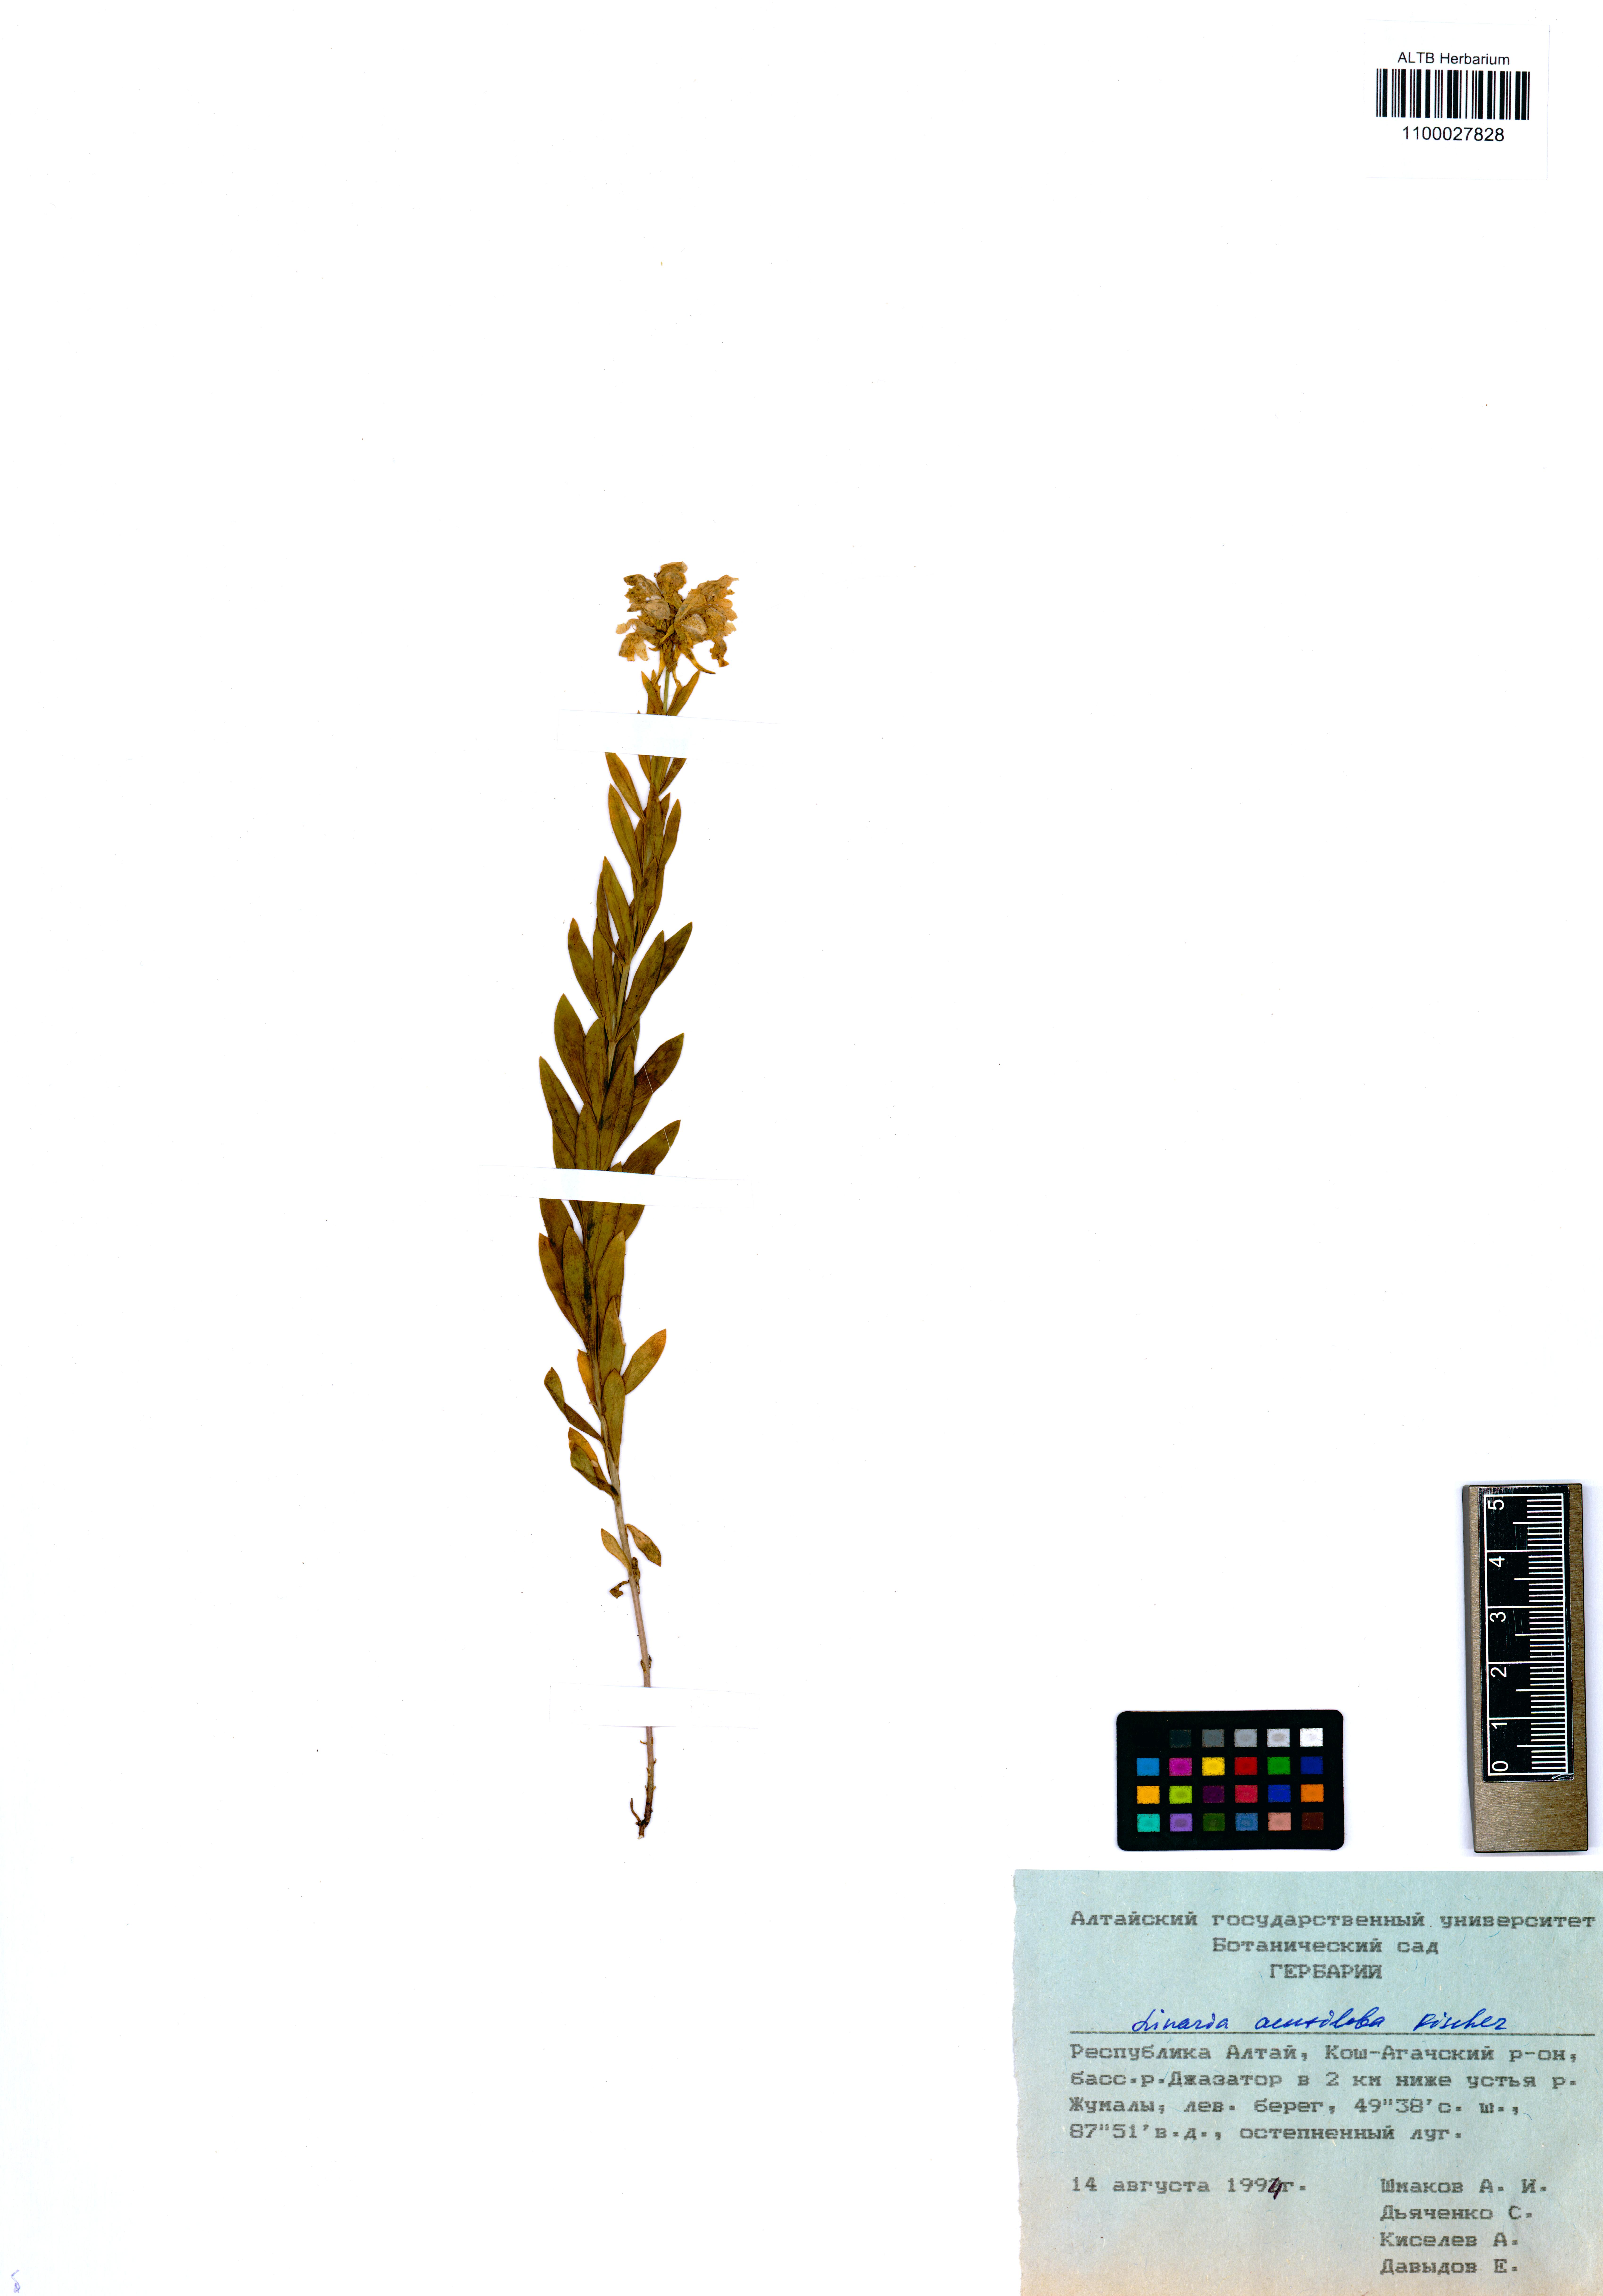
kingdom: Plantae
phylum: Tracheophyta
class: Magnoliopsida
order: Lamiales
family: Plantaginaceae
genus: Linaria
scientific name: Linaria acutiloba
